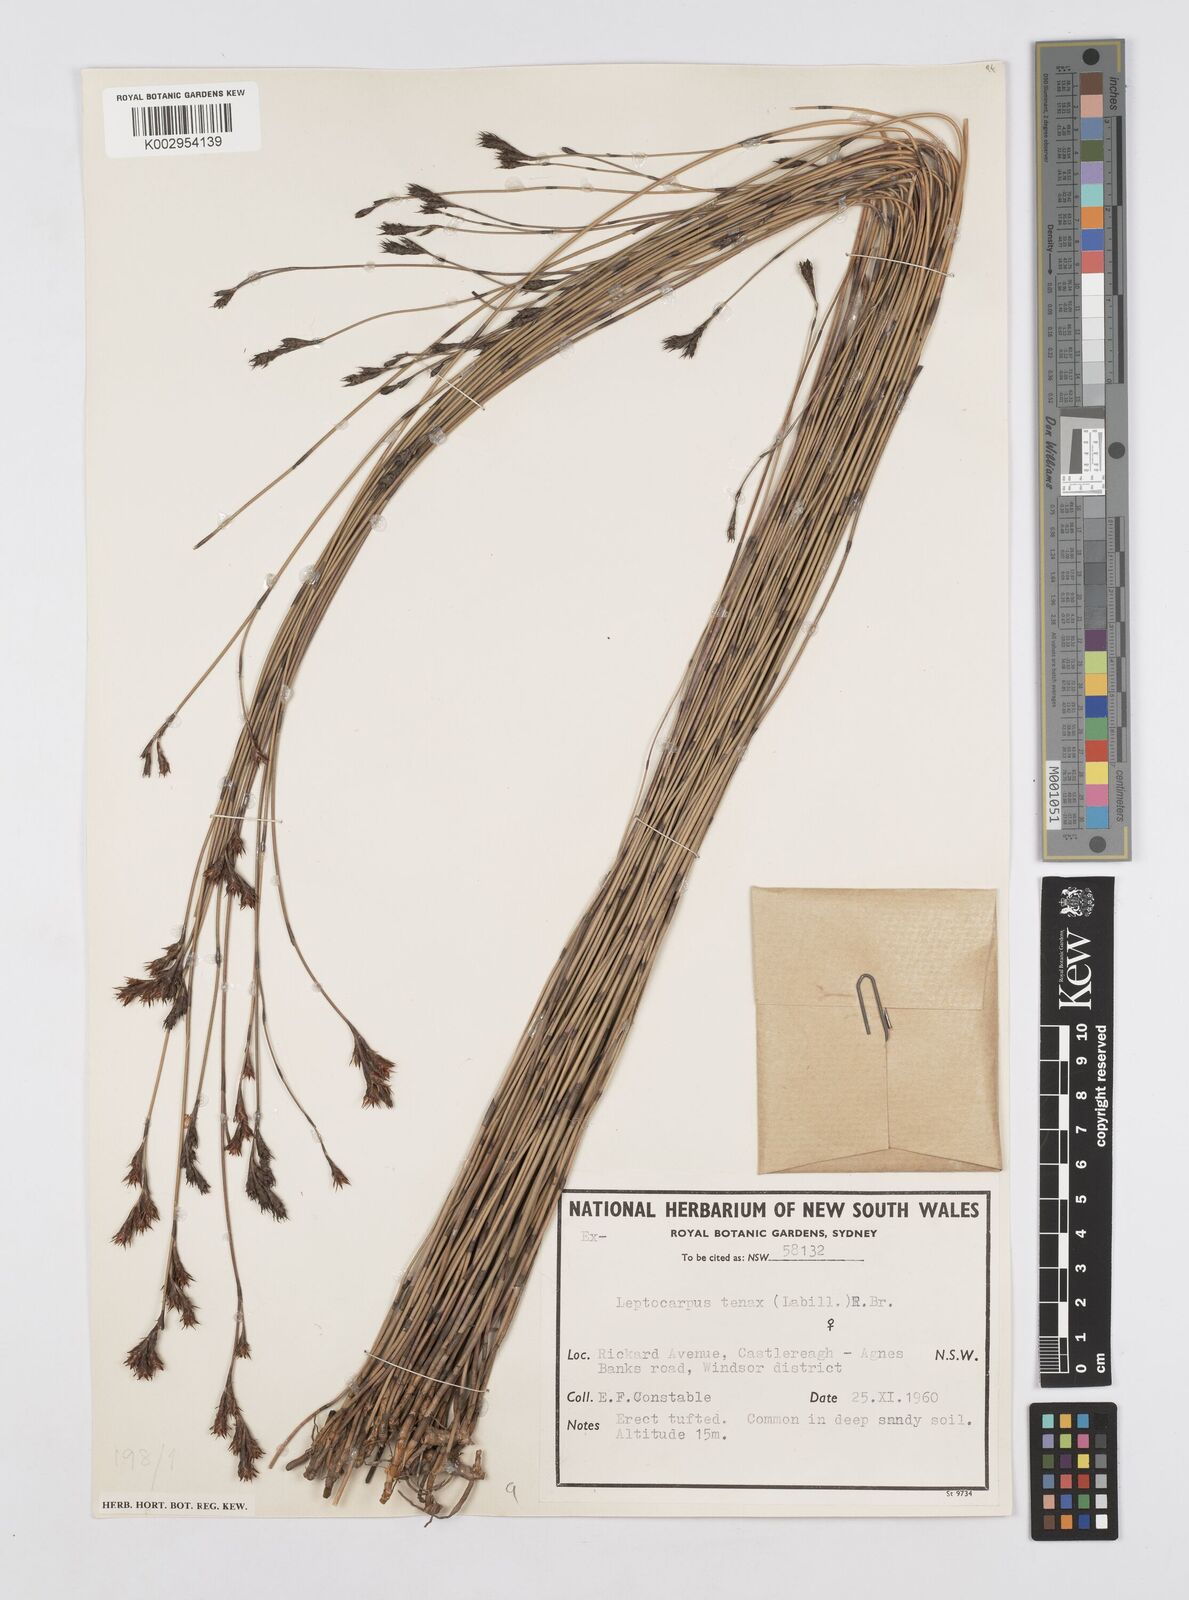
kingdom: Plantae
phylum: Tracheophyta
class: Liliopsida
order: Poales
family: Restionaceae
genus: Leptocarpus
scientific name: Leptocarpus tenax
